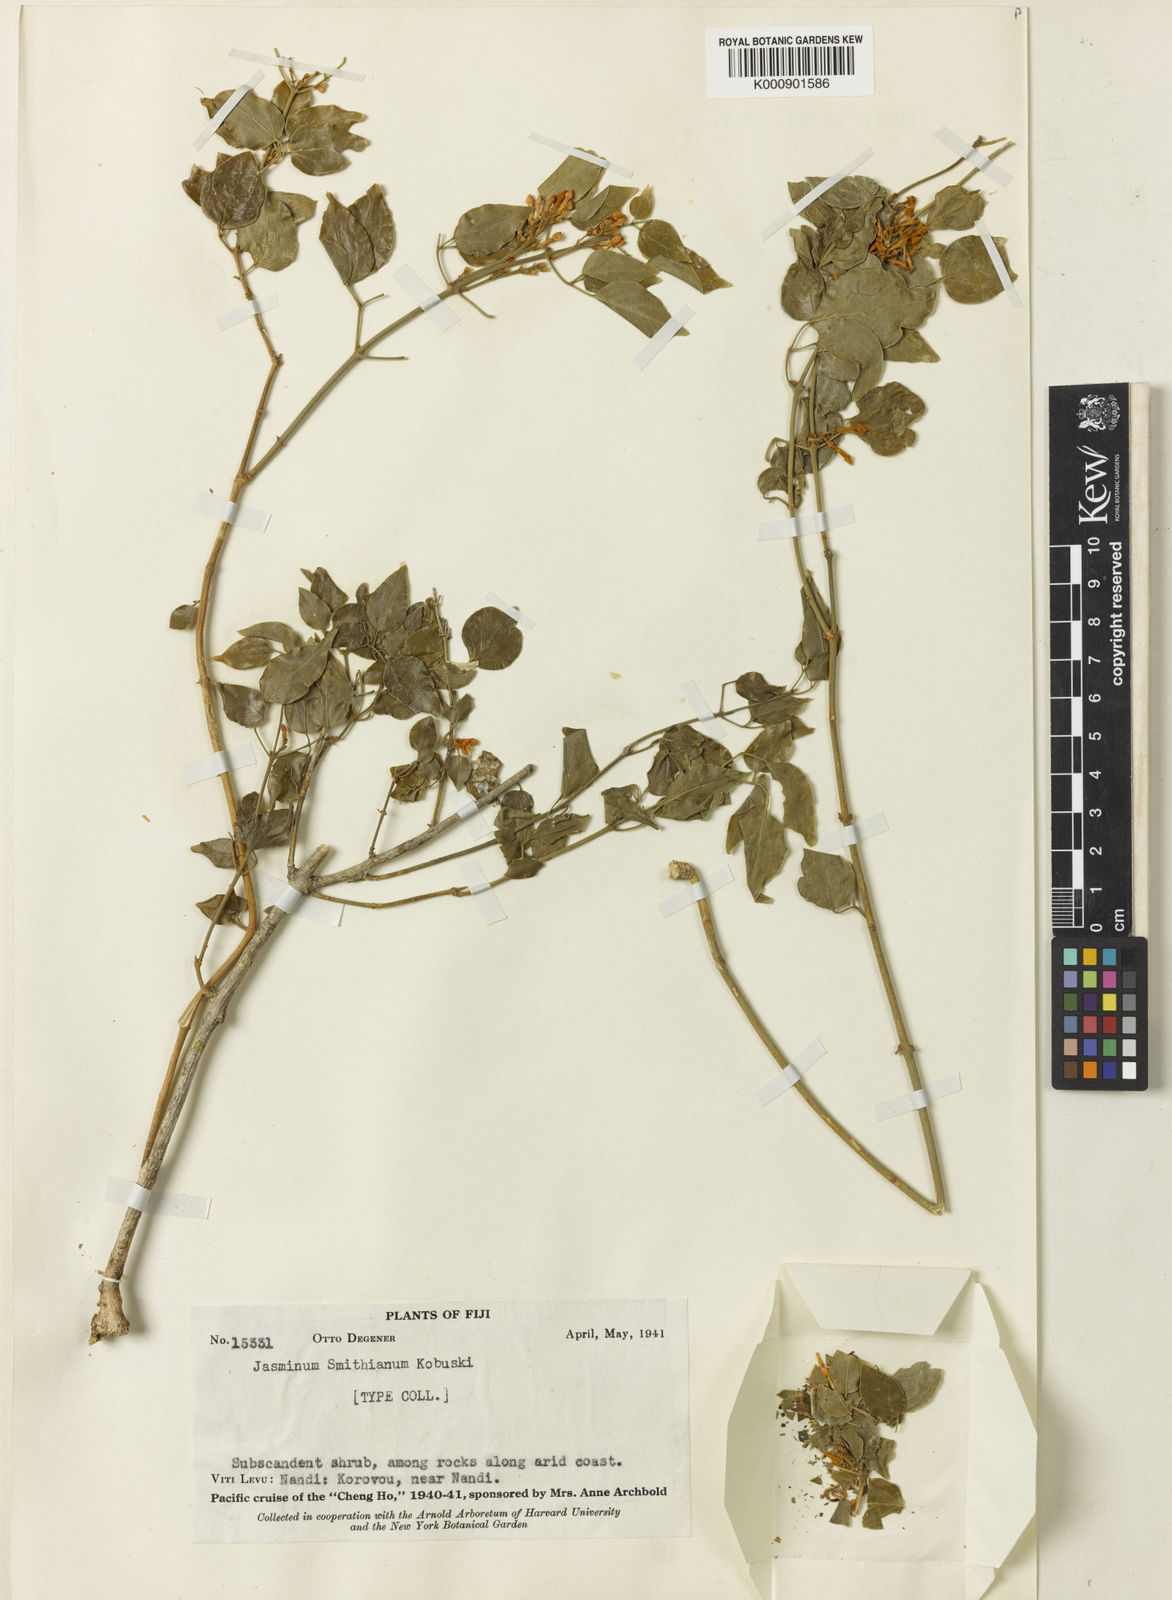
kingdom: Plantae
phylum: Tracheophyta
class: Magnoliopsida
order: Lamiales
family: Oleaceae
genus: Jasminum
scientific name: Jasminum degeneri
